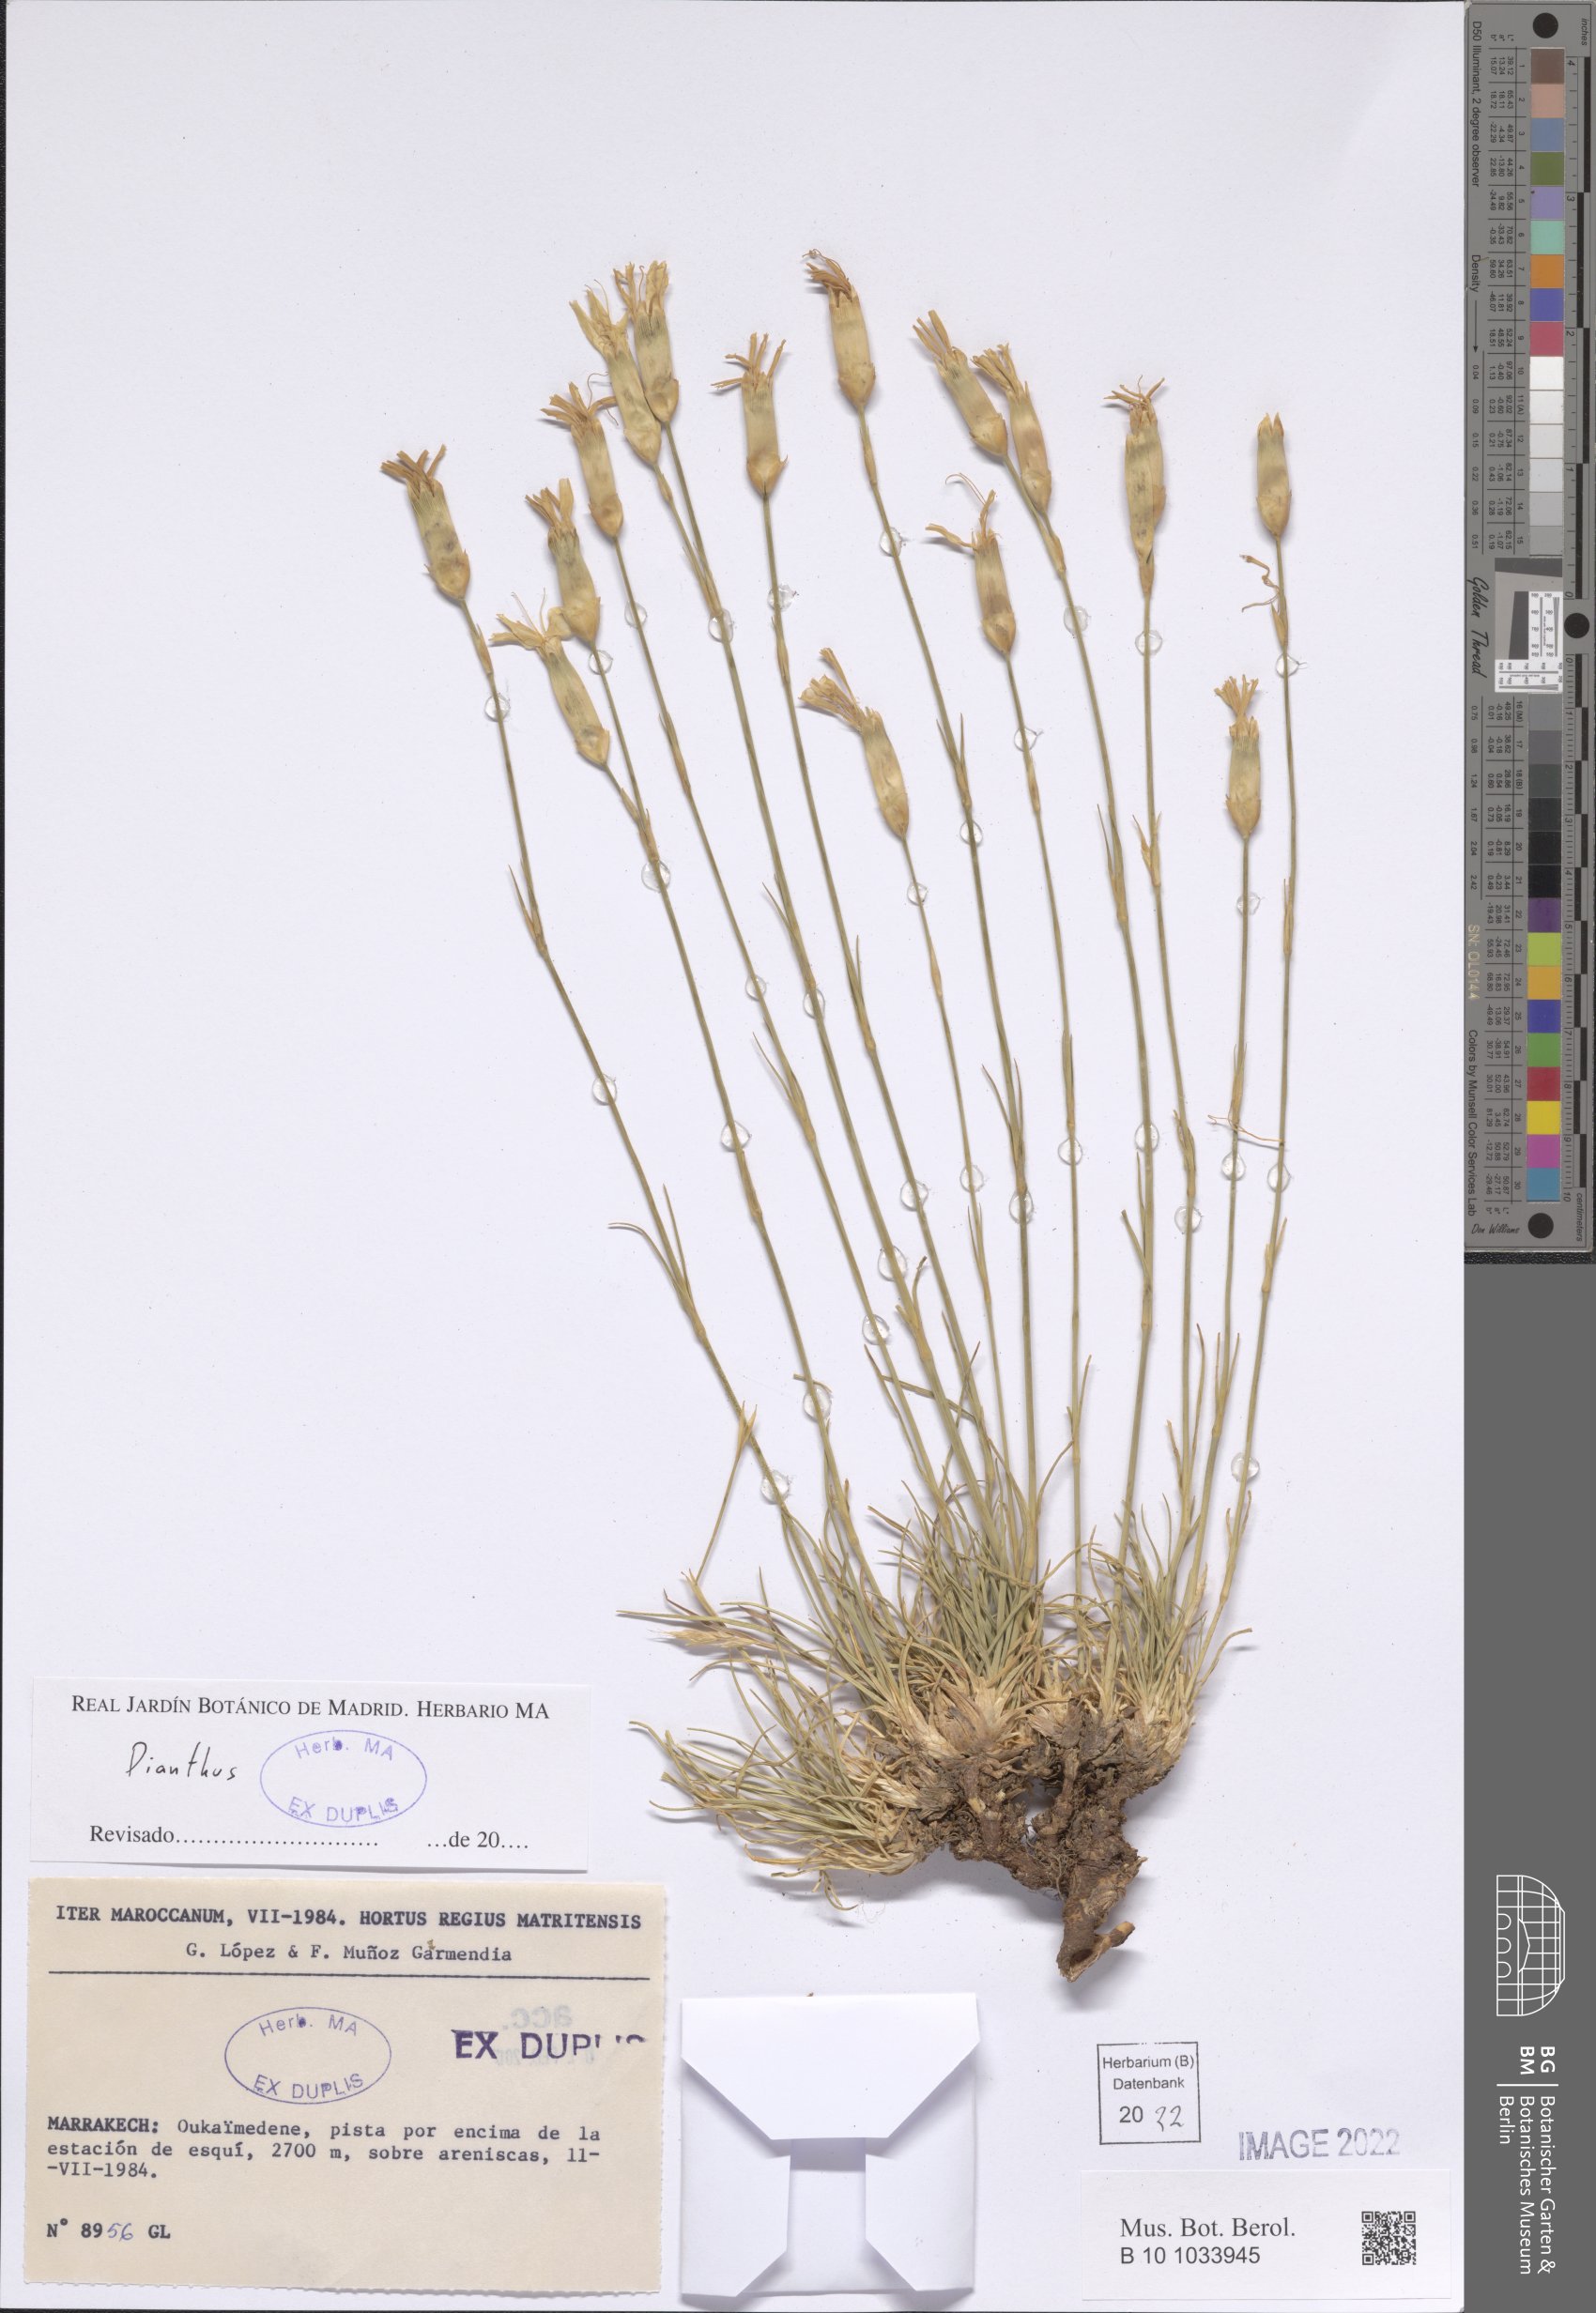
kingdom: Plantae
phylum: Tracheophyta
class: Magnoliopsida
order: Caryophyllales
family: Caryophyllaceae
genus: Dianthus
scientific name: Dianthus
